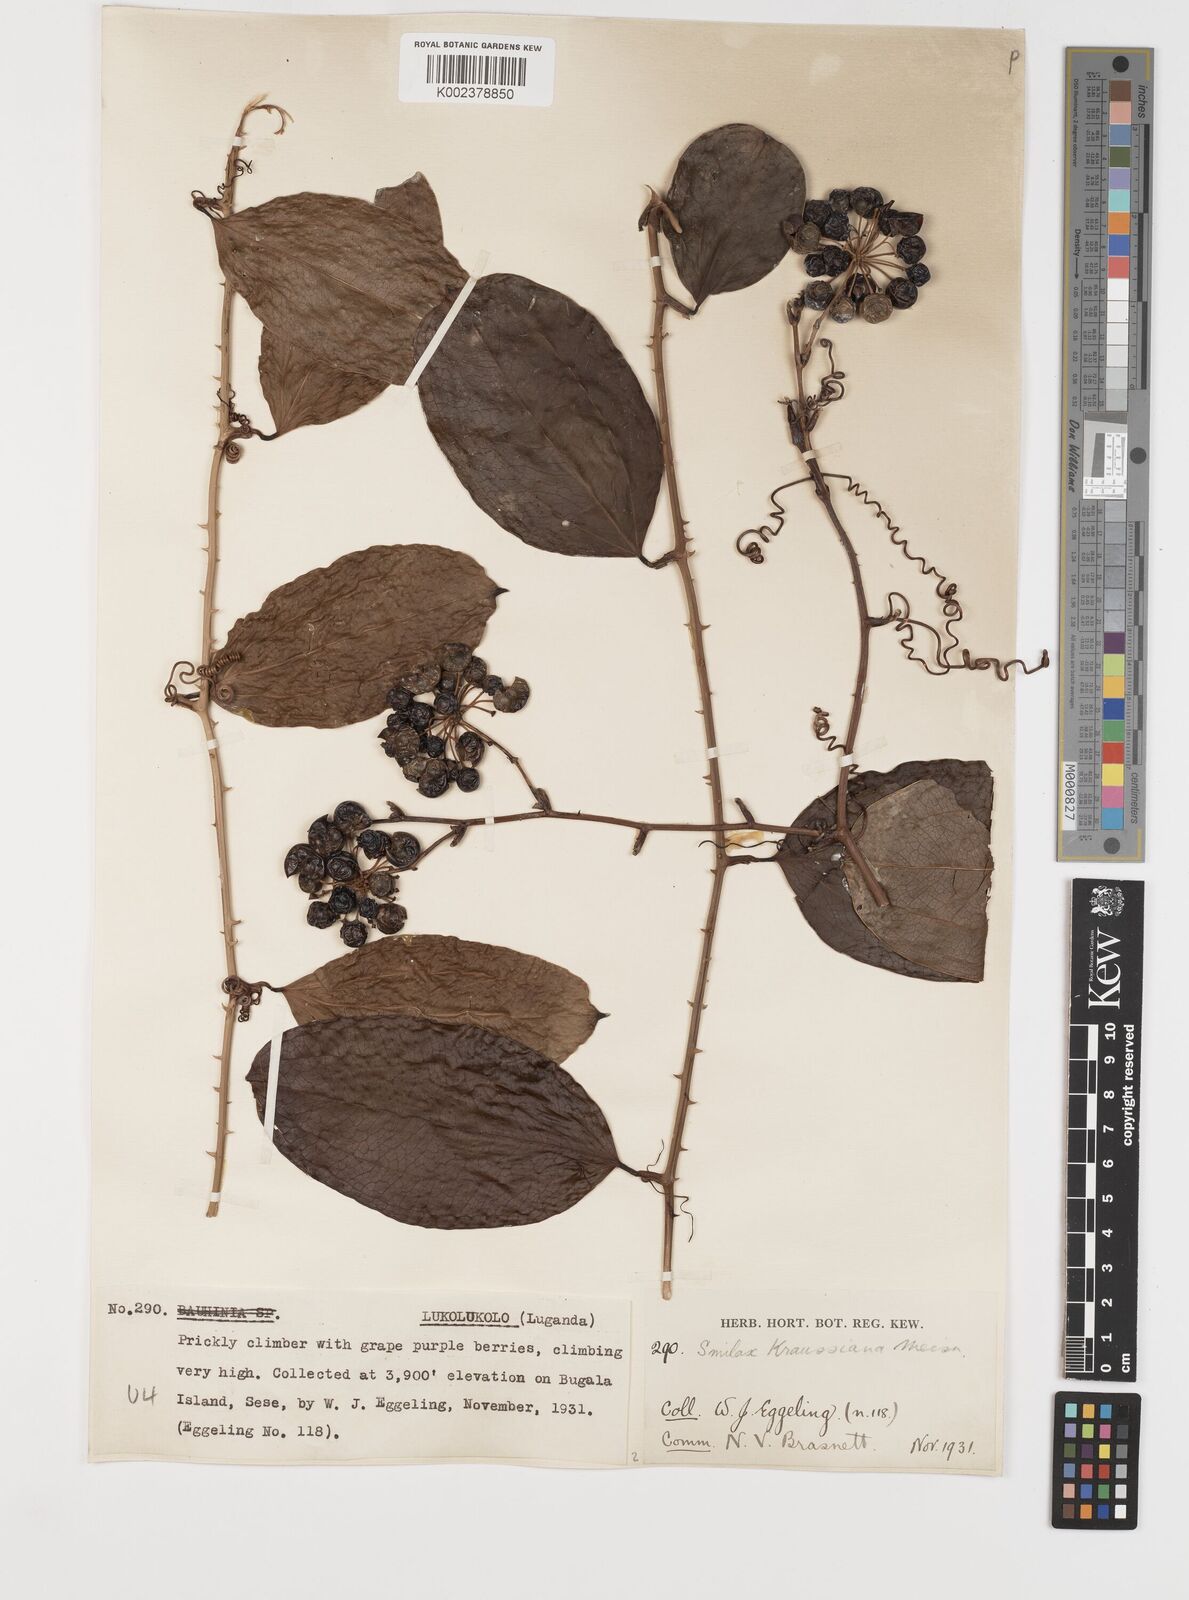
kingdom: Plantae
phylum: Tracheophyta
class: Liliopsida
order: Liliales
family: Smilacaceae
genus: Smilax
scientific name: Smilax anceps
